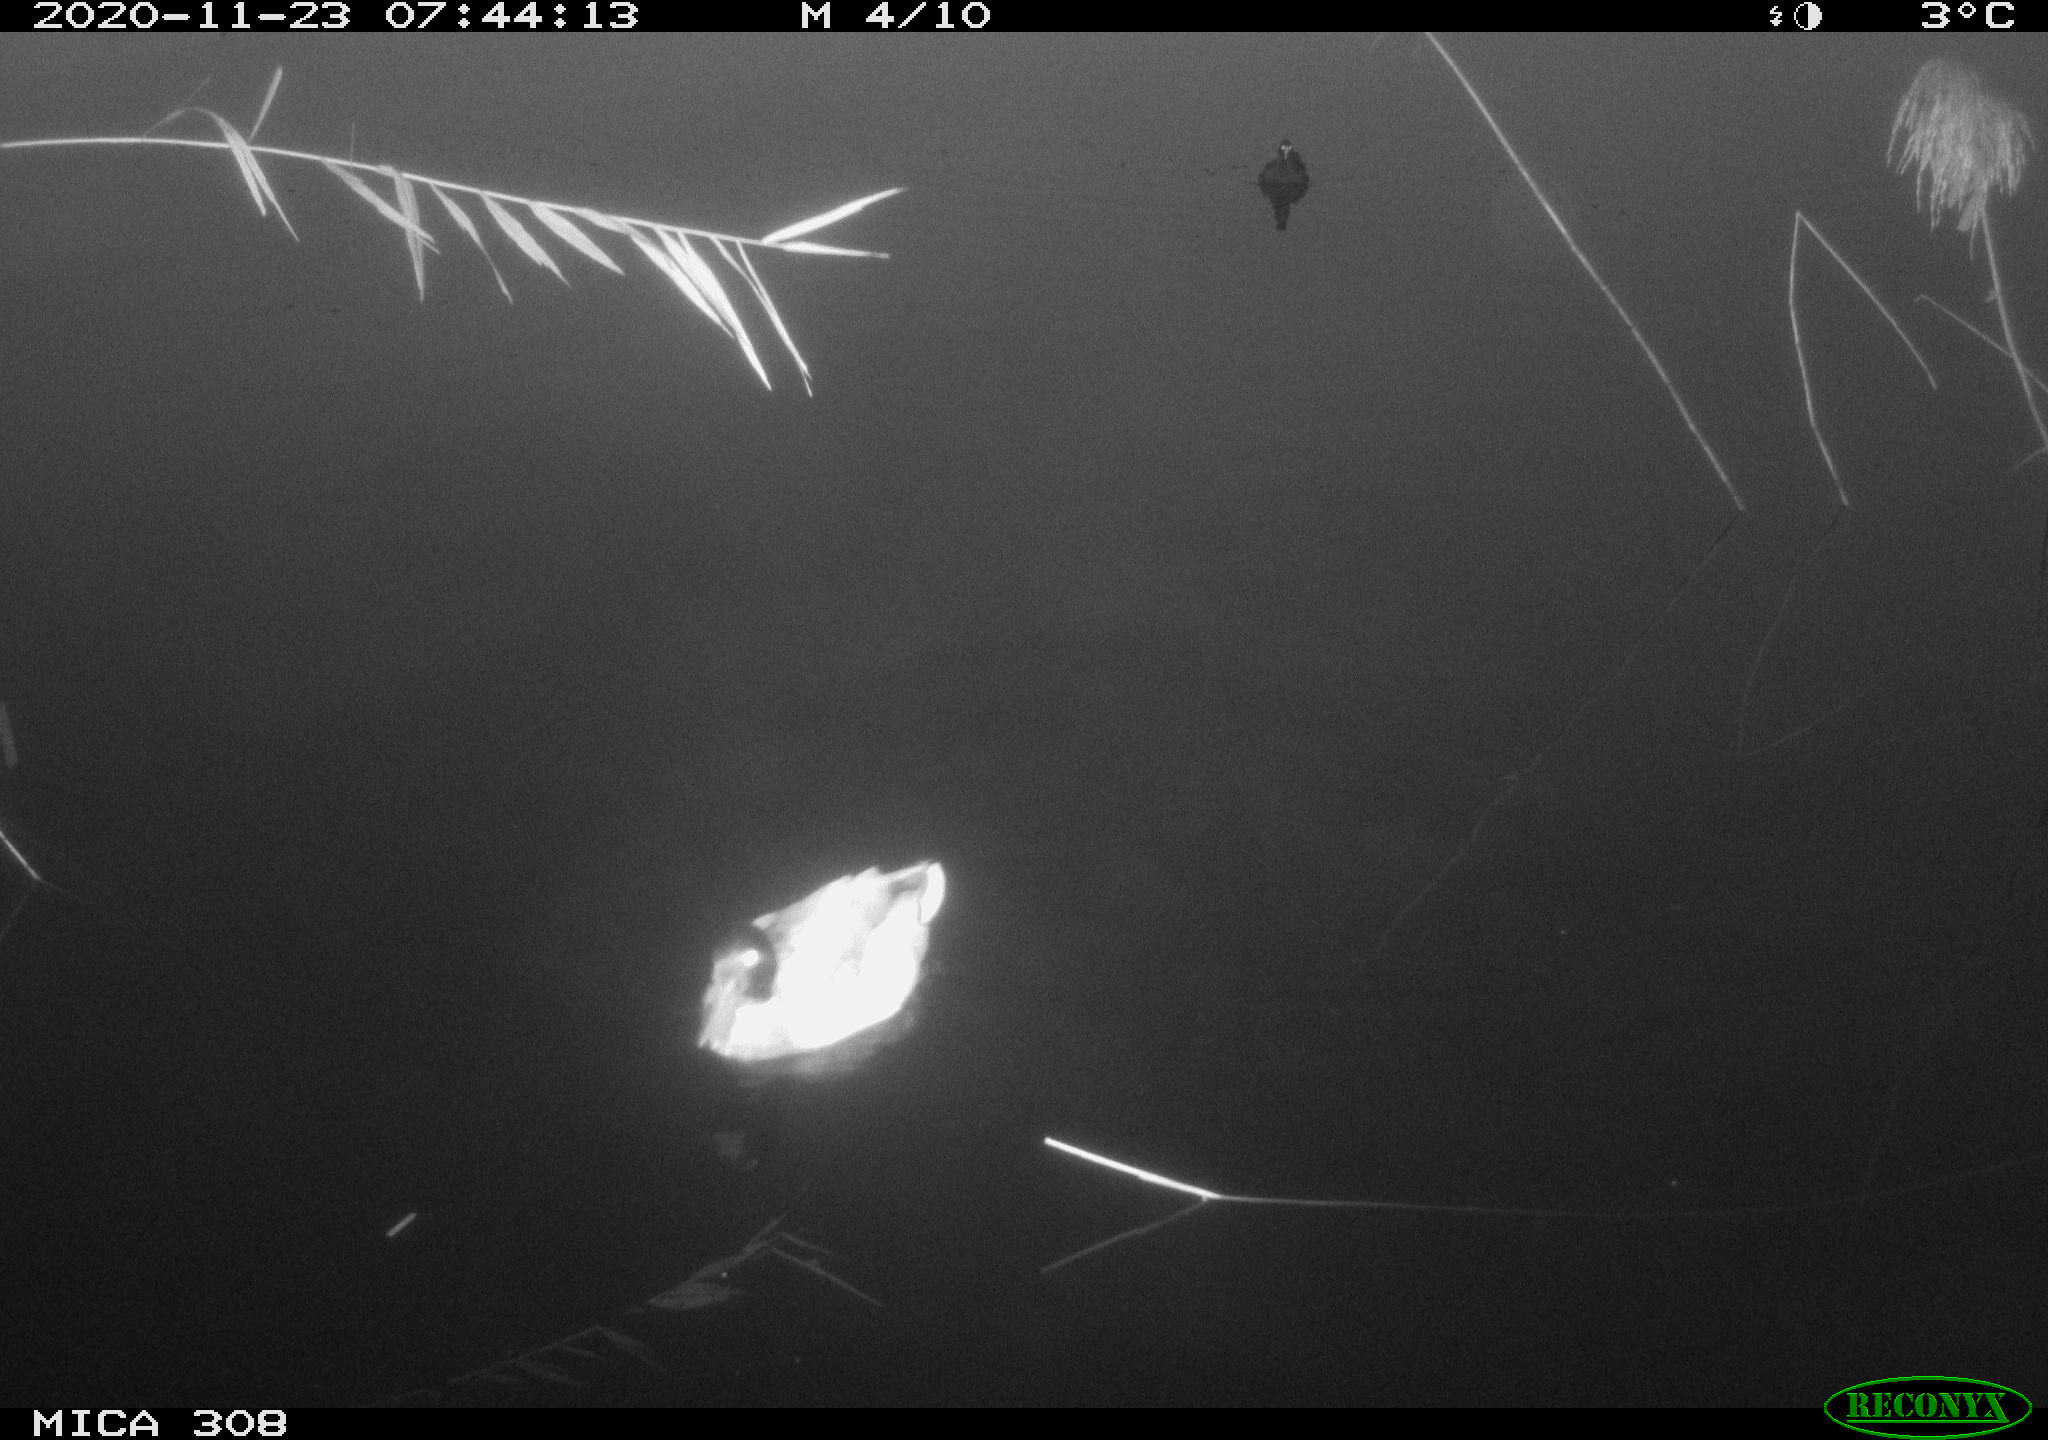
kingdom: Animalia
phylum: Chordata
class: Aves
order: Gruiformes
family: Rallidae
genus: Fulica
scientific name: Fulica atra
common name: Eurasian coot
